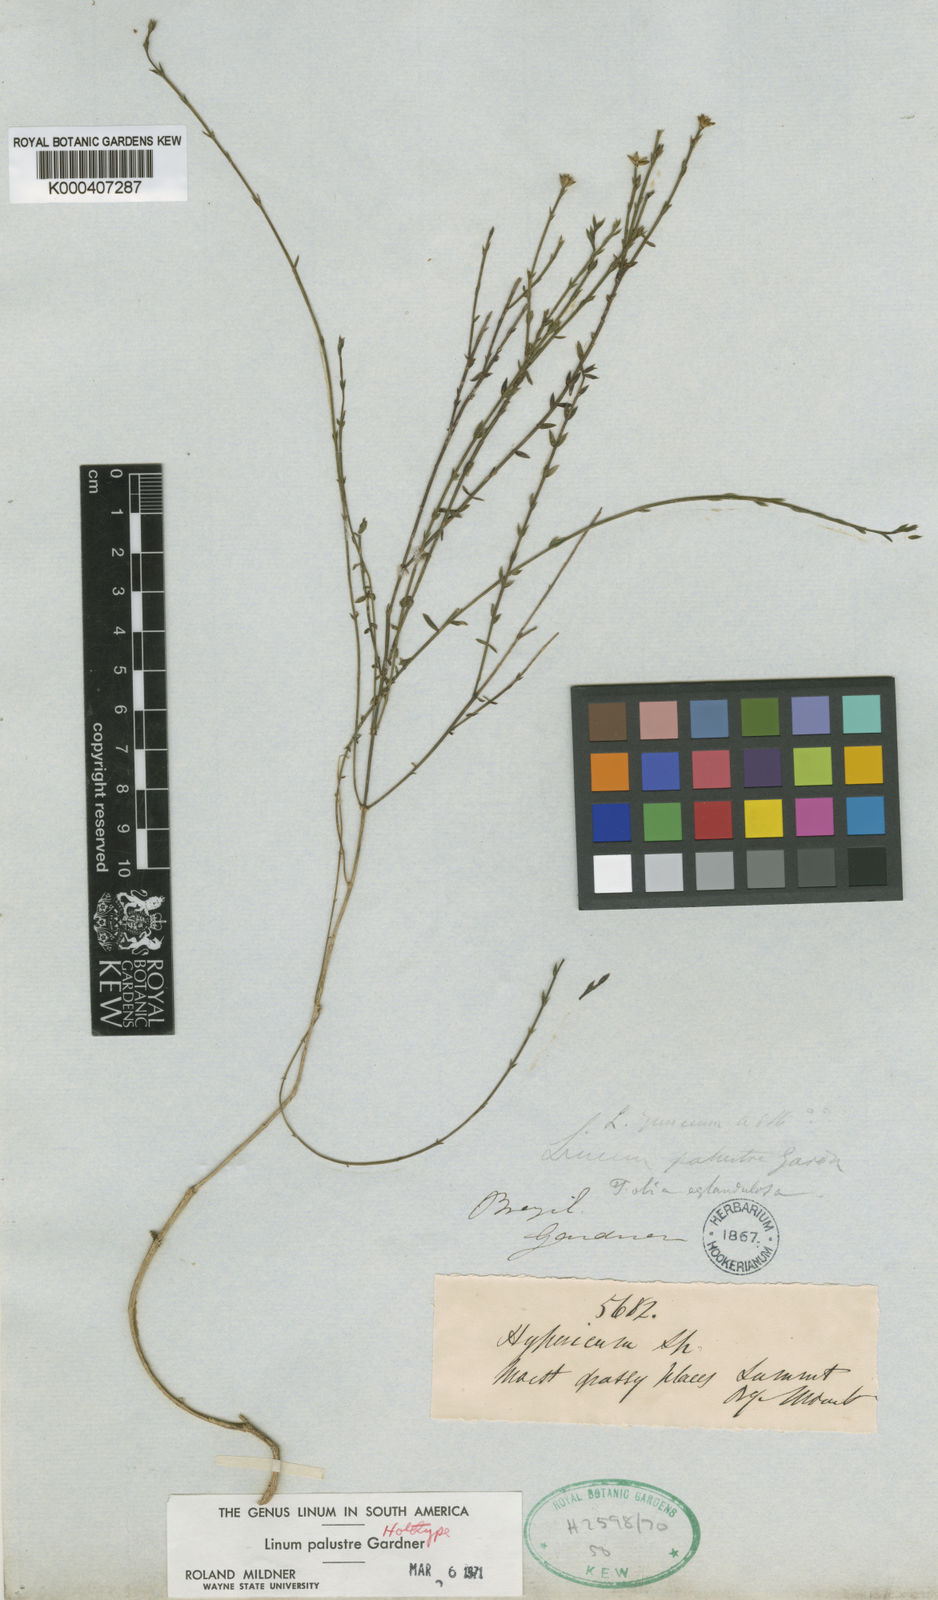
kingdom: Plantae
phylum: Tracheophyta
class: Magnoliopsida
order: Malpighiales
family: Linaceae
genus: Linum
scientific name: Linum littorale
